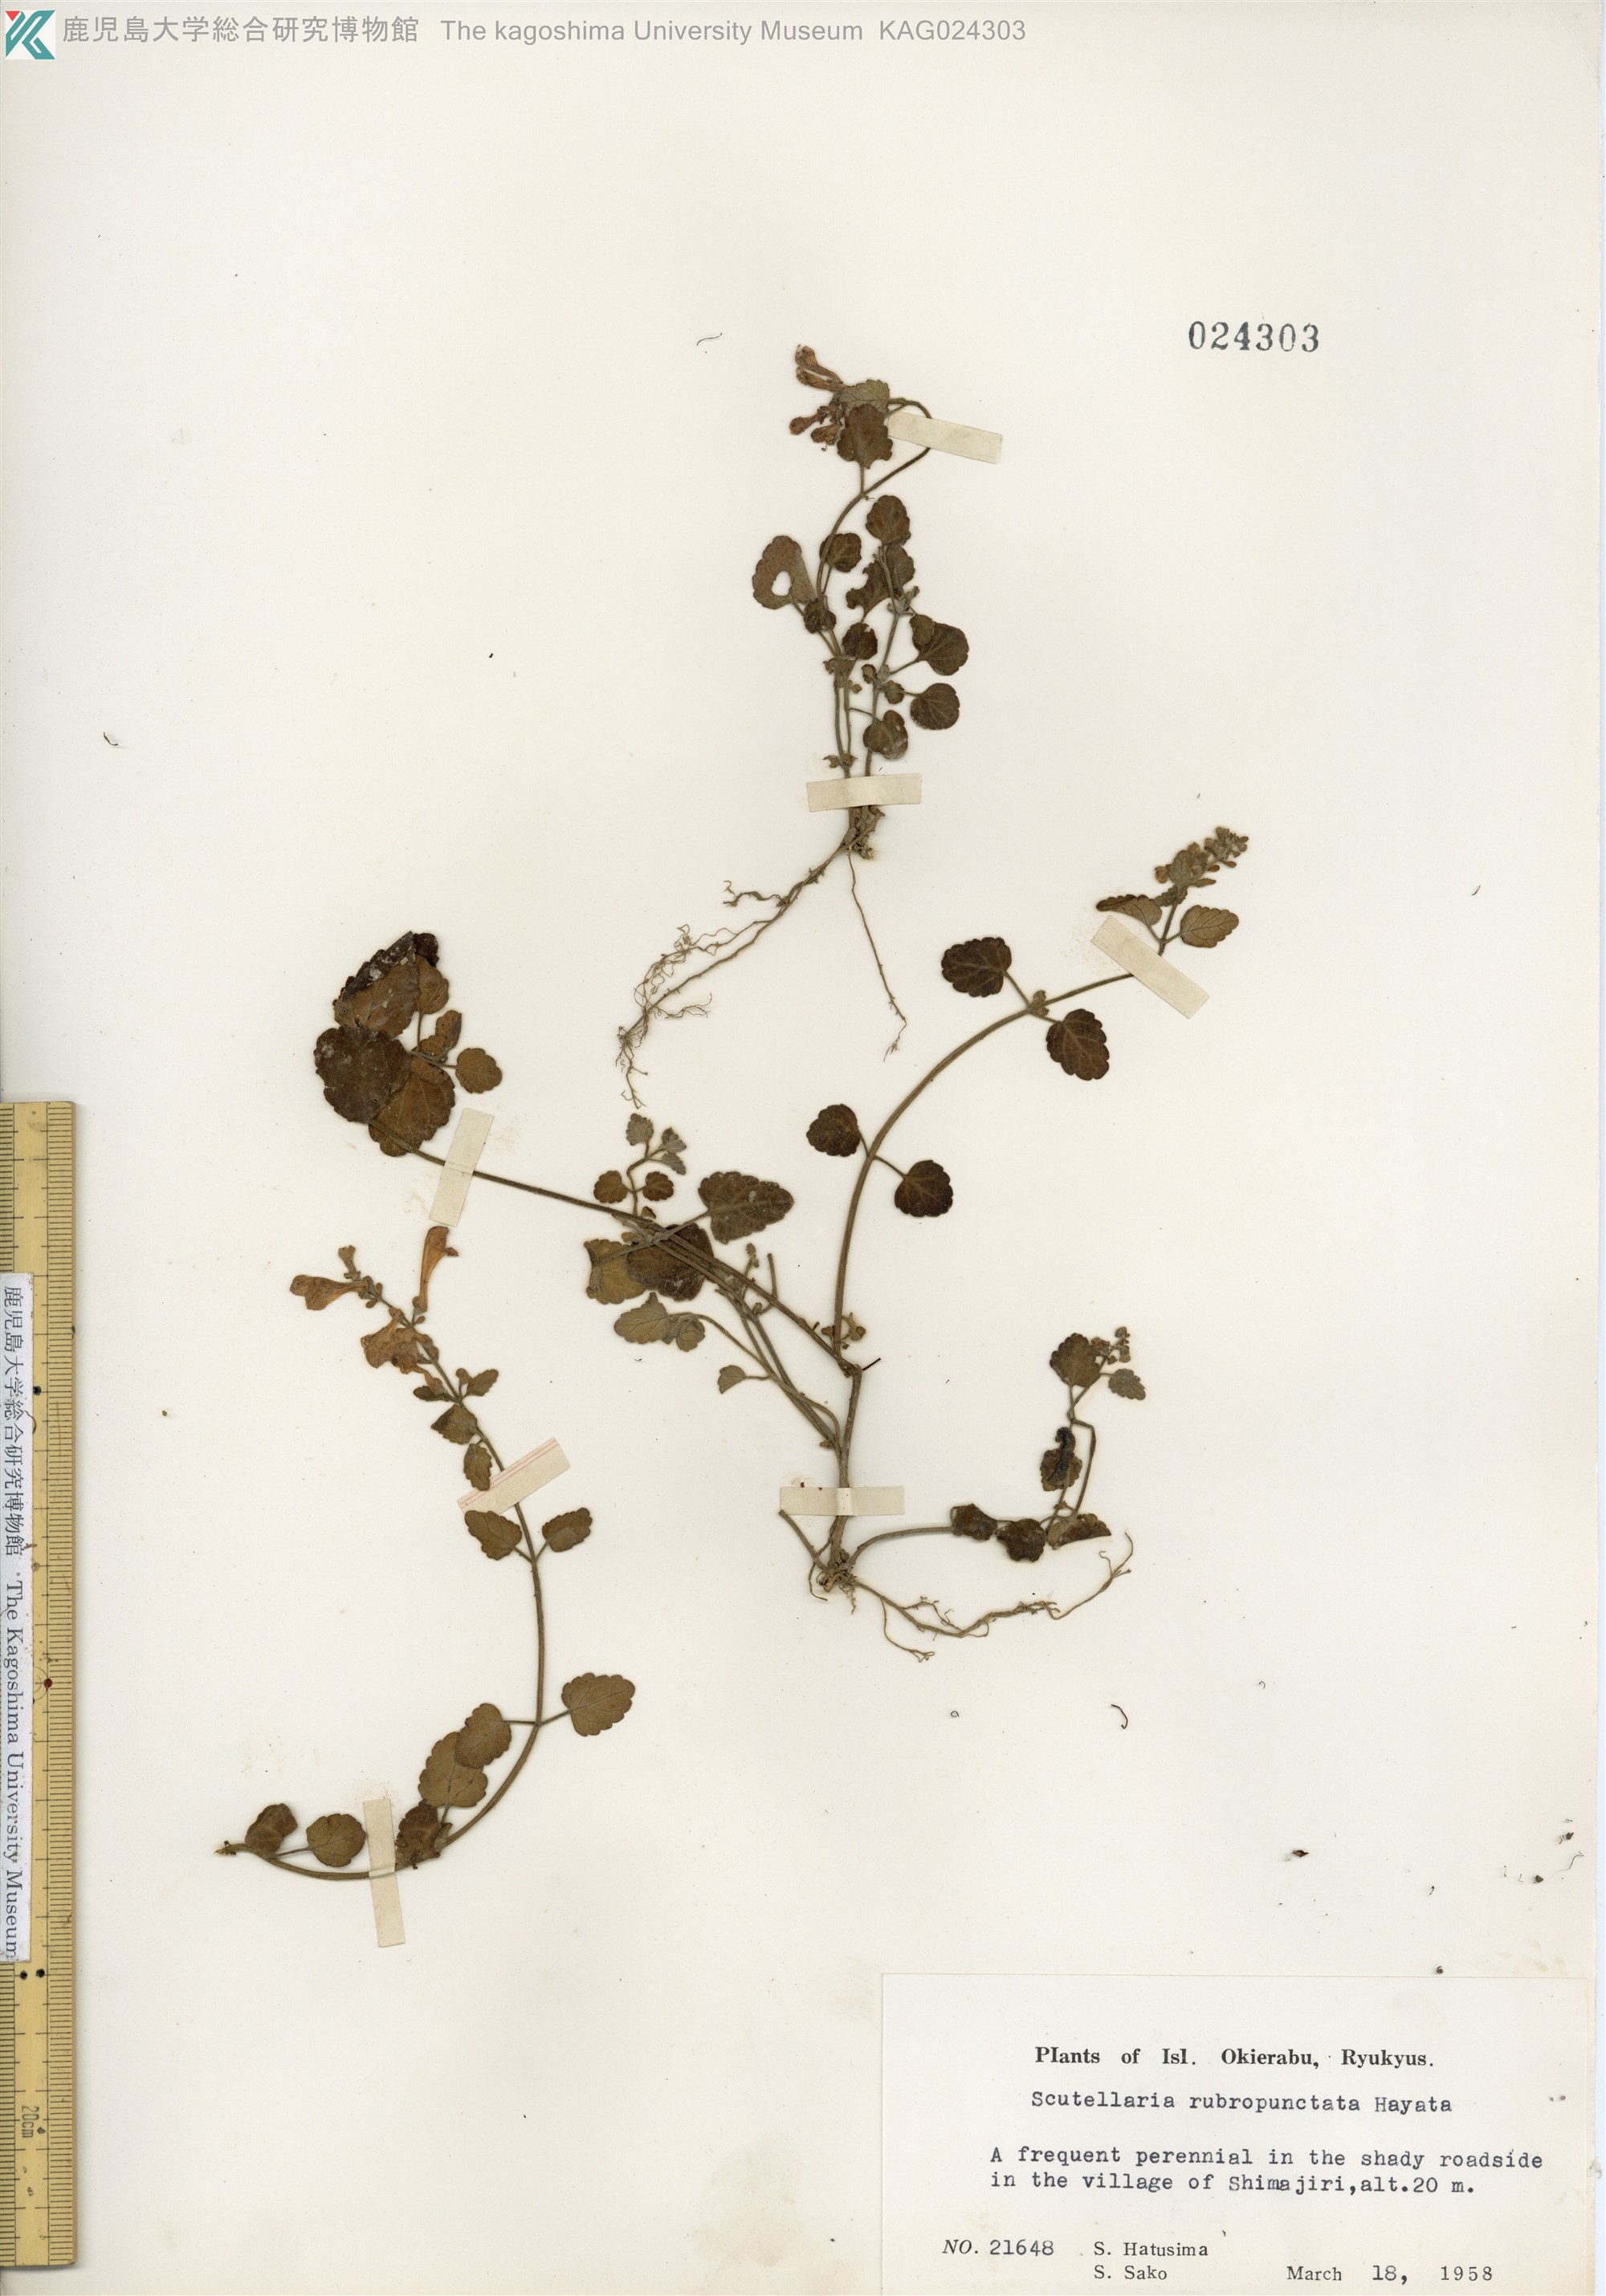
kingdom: Plantae
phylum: Tracheophyta
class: Magnoliopsida
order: Lamiales
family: Lamiaceae
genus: Scutellaria
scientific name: Scutellaria rubropunctata
